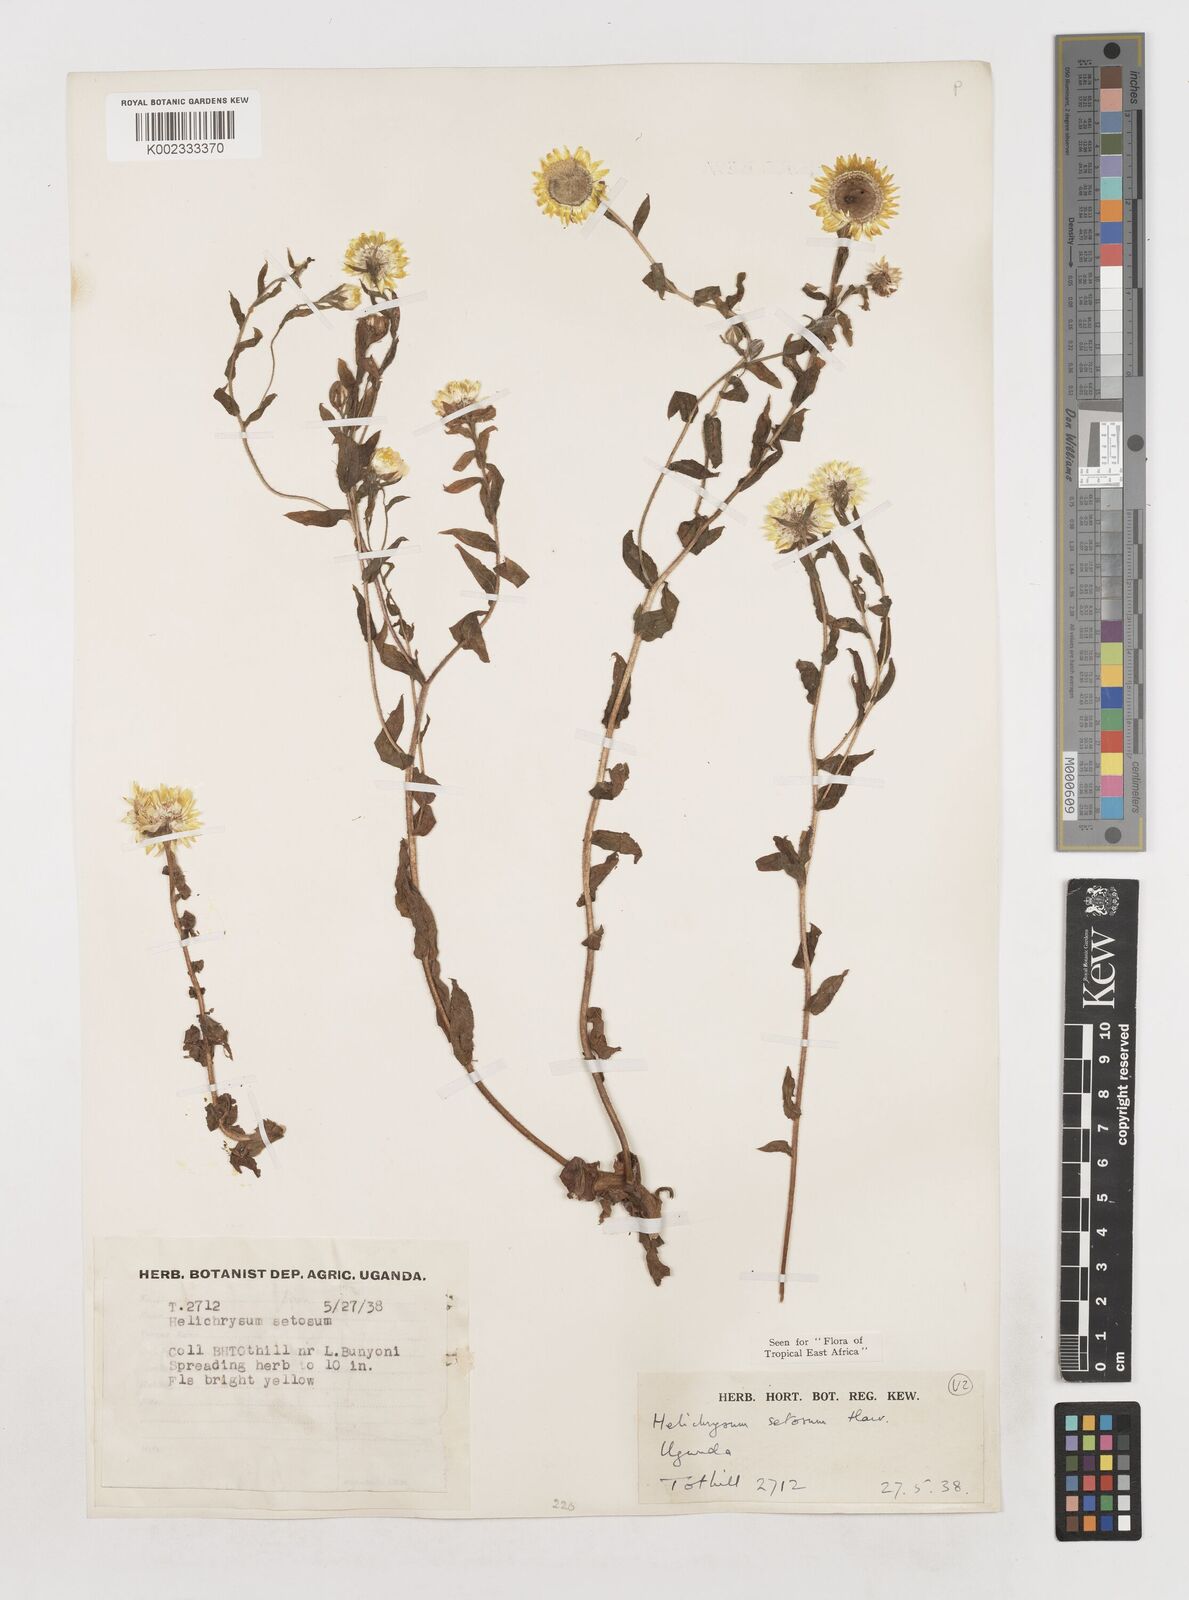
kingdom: Plantae
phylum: Tracheophyta
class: Magnoliopsida
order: Asterales
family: Asteraceae
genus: Helichrysum
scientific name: Helichrysum setosum
